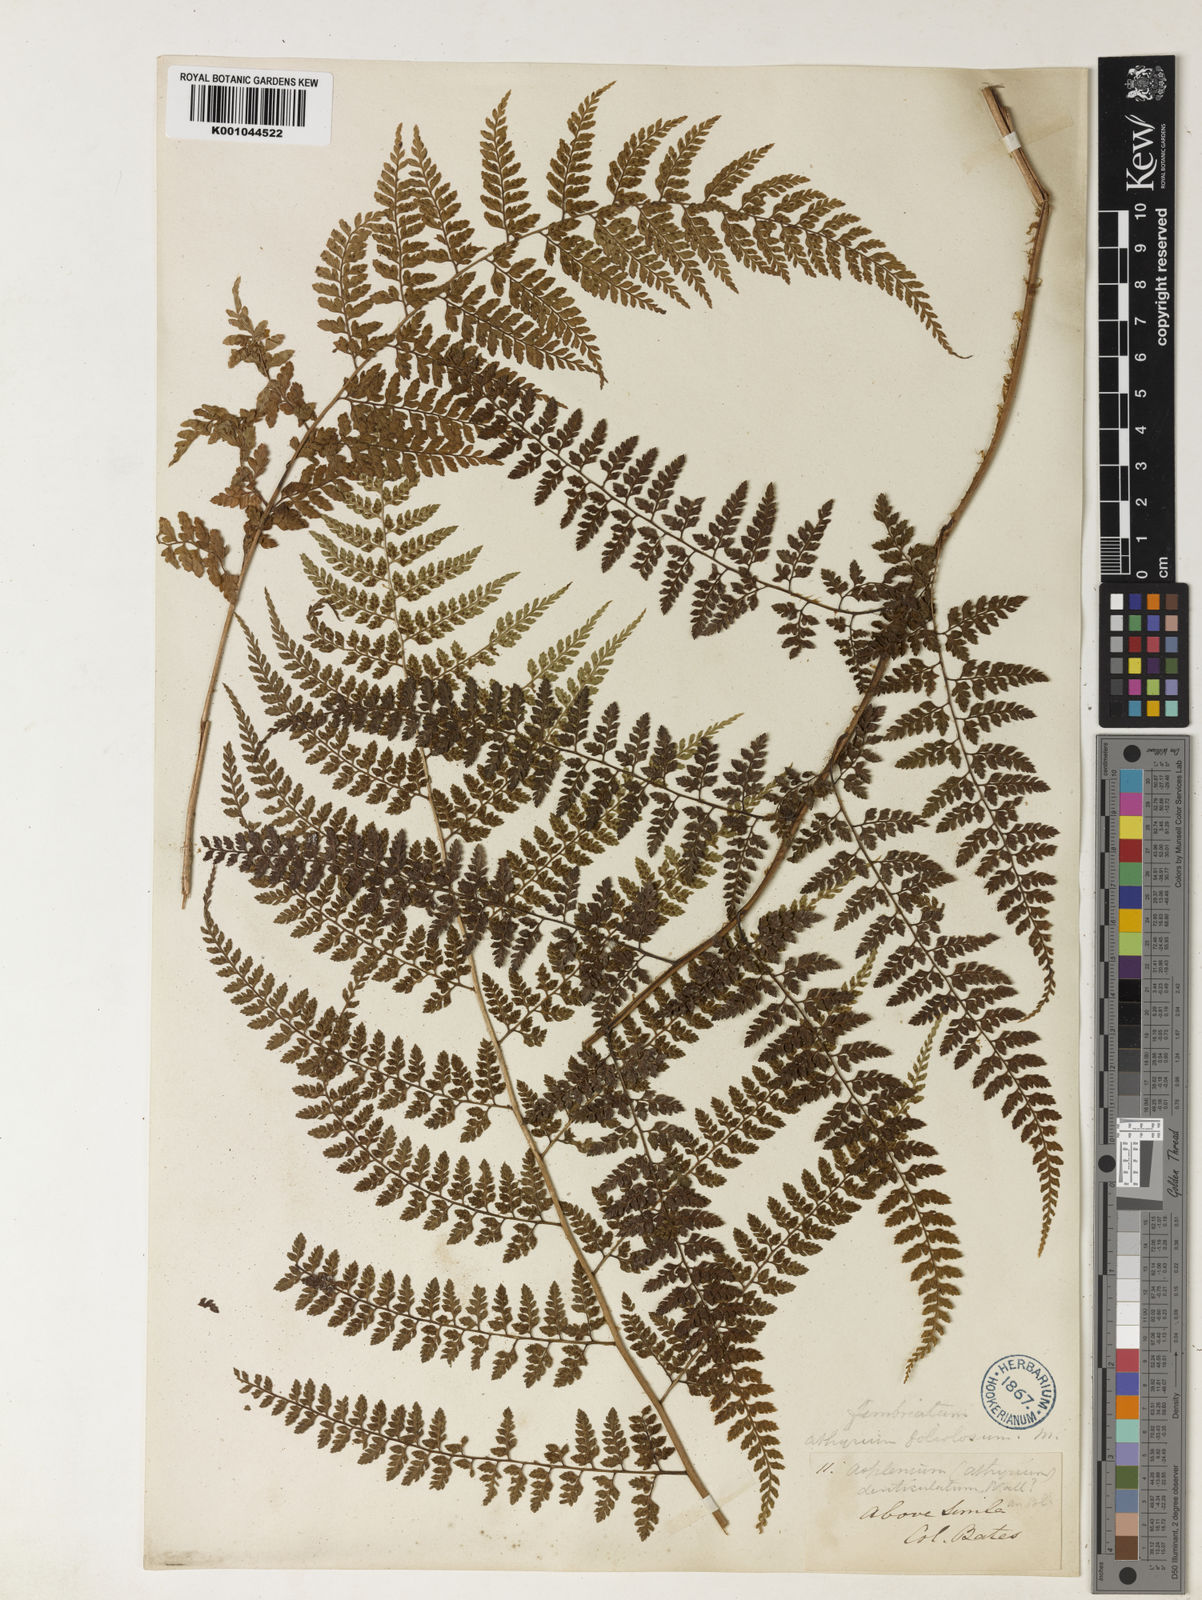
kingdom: Plantae
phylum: Tracheophyta
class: Polypodiopsida
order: Polypodiales
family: Athyriaceae
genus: Athyrium
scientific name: Athyrium fimbriatum
